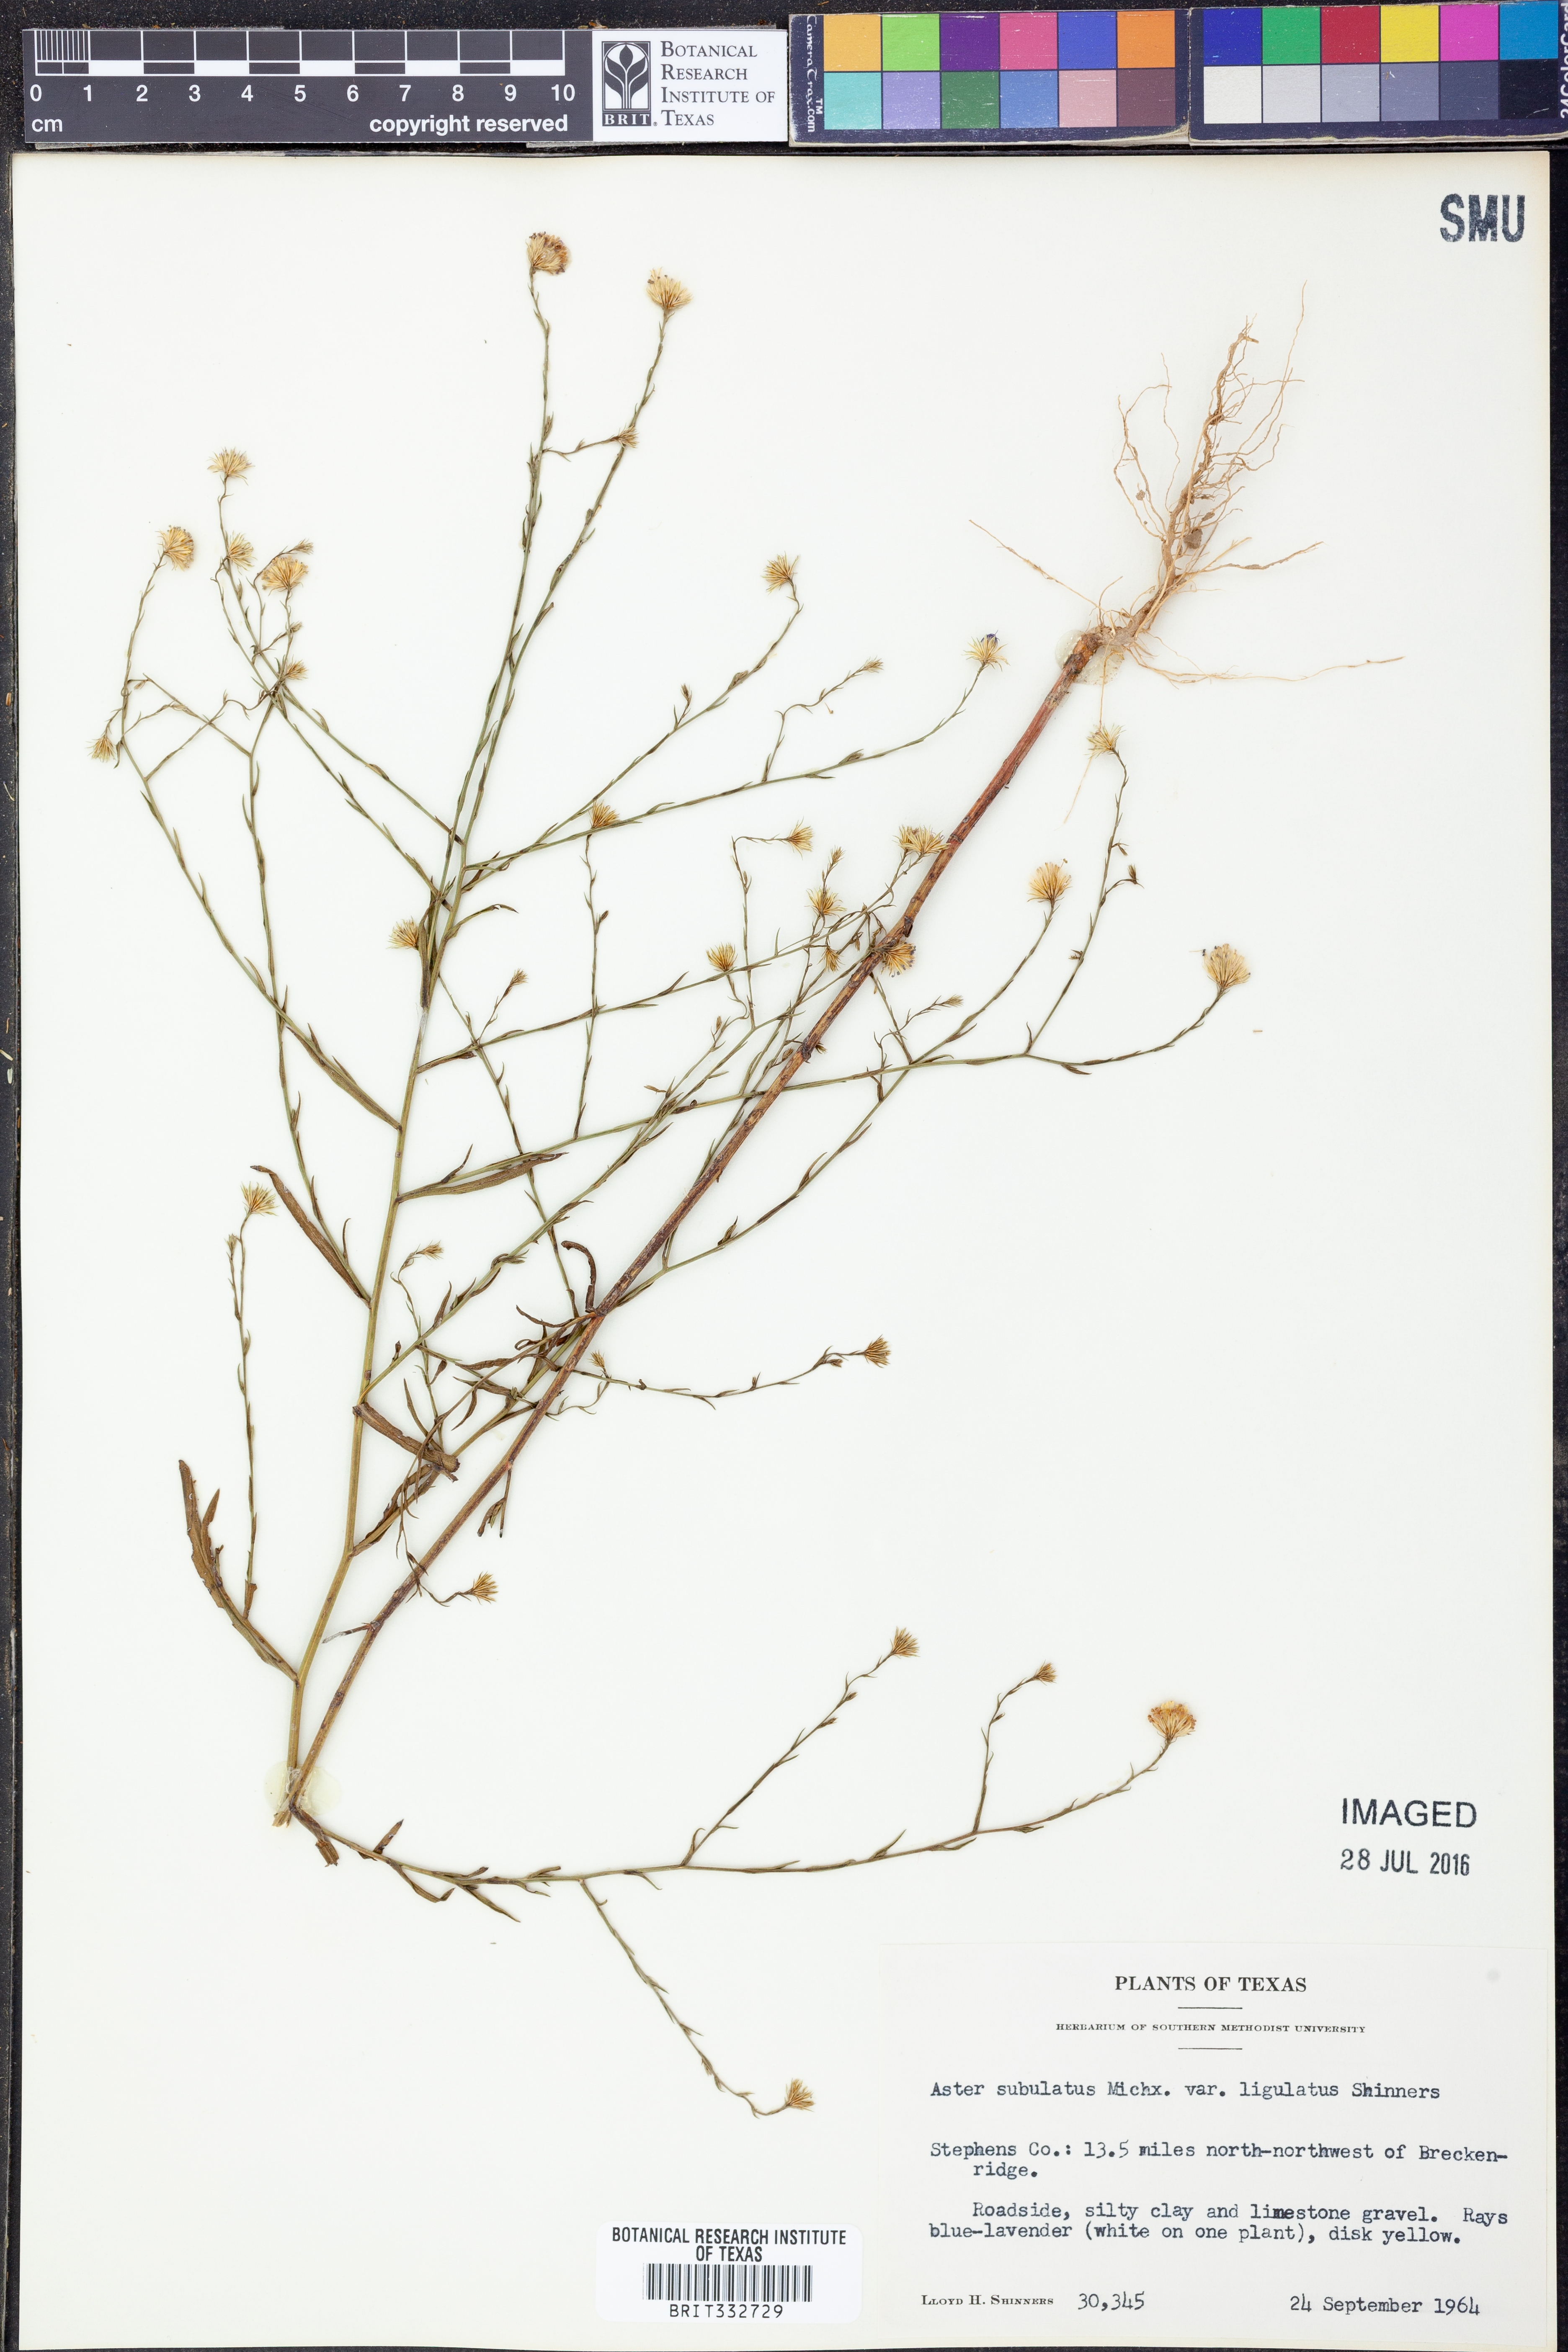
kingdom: Plantae
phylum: Tracheophyta
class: Magnoliopsida
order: Asterales
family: Asteraceae
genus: Symphyotrichum
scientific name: Symphyotrichum divaricatum
